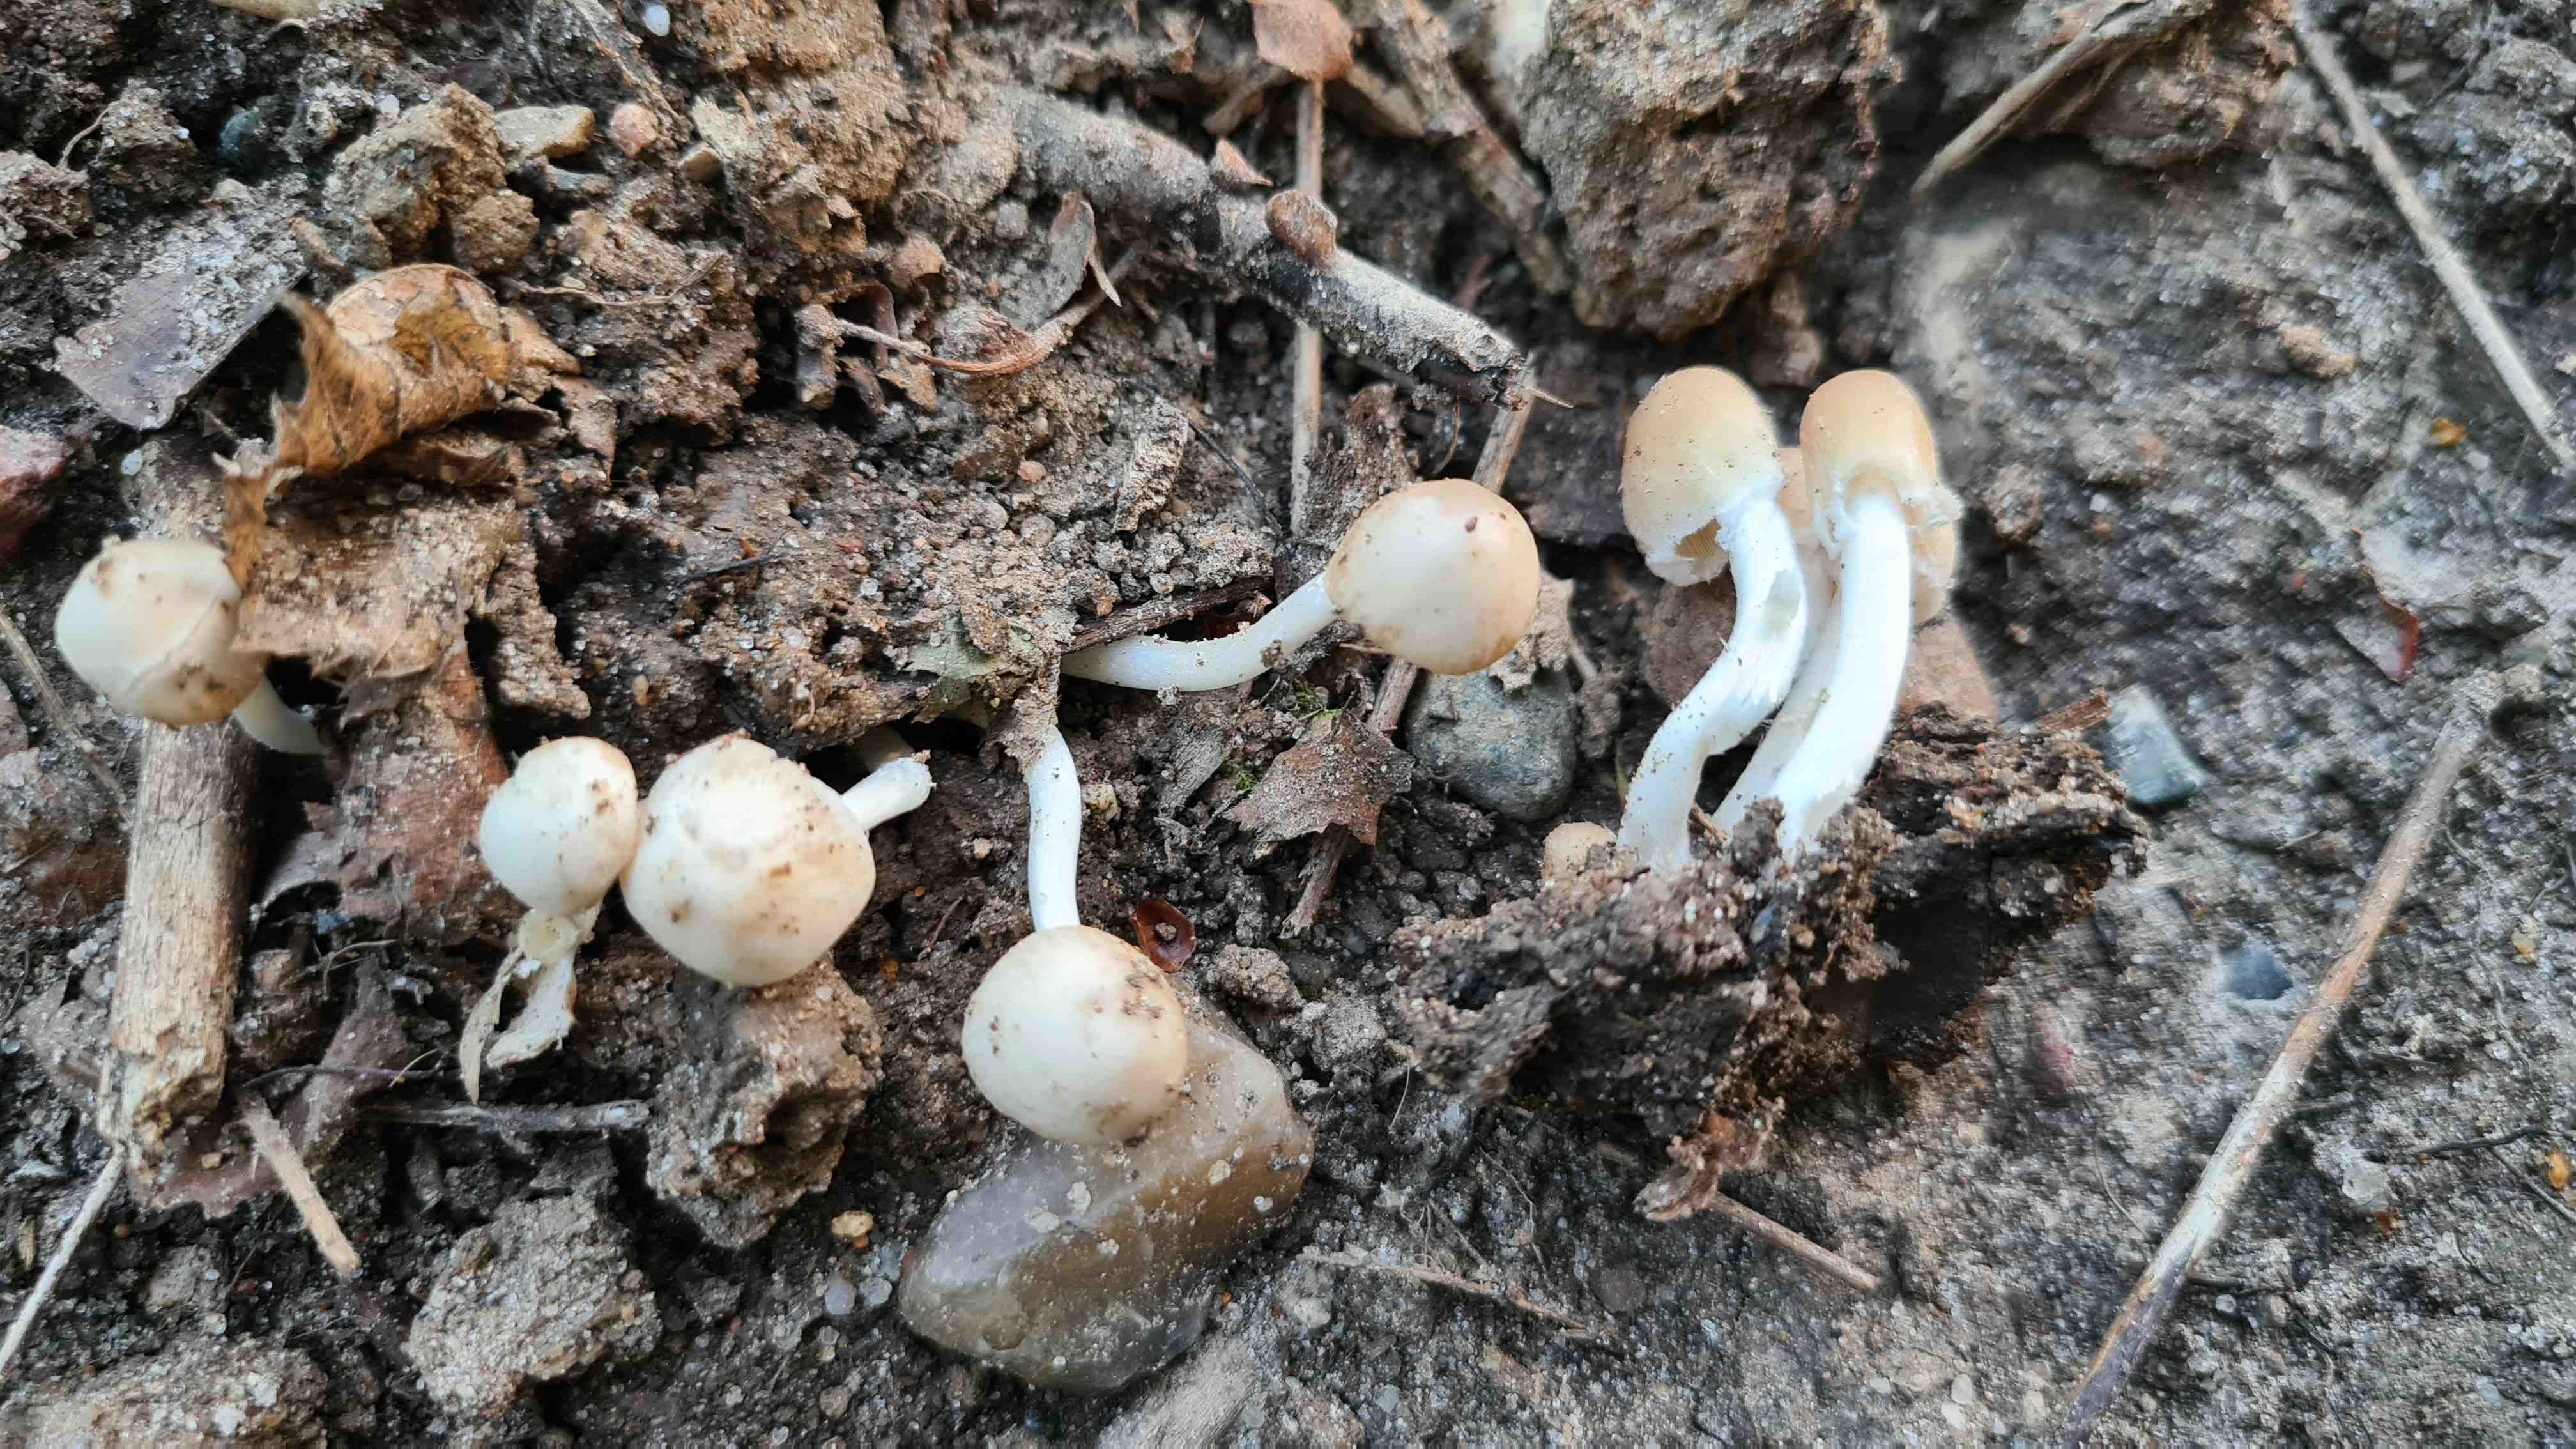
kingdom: Fungi
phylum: Basidiomycota
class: Agaricomycetes
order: Agaricales
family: Psathyrellaceae
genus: Candolleomyces
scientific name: Candolleomyces candolleanus
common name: Candolles mørkhat
